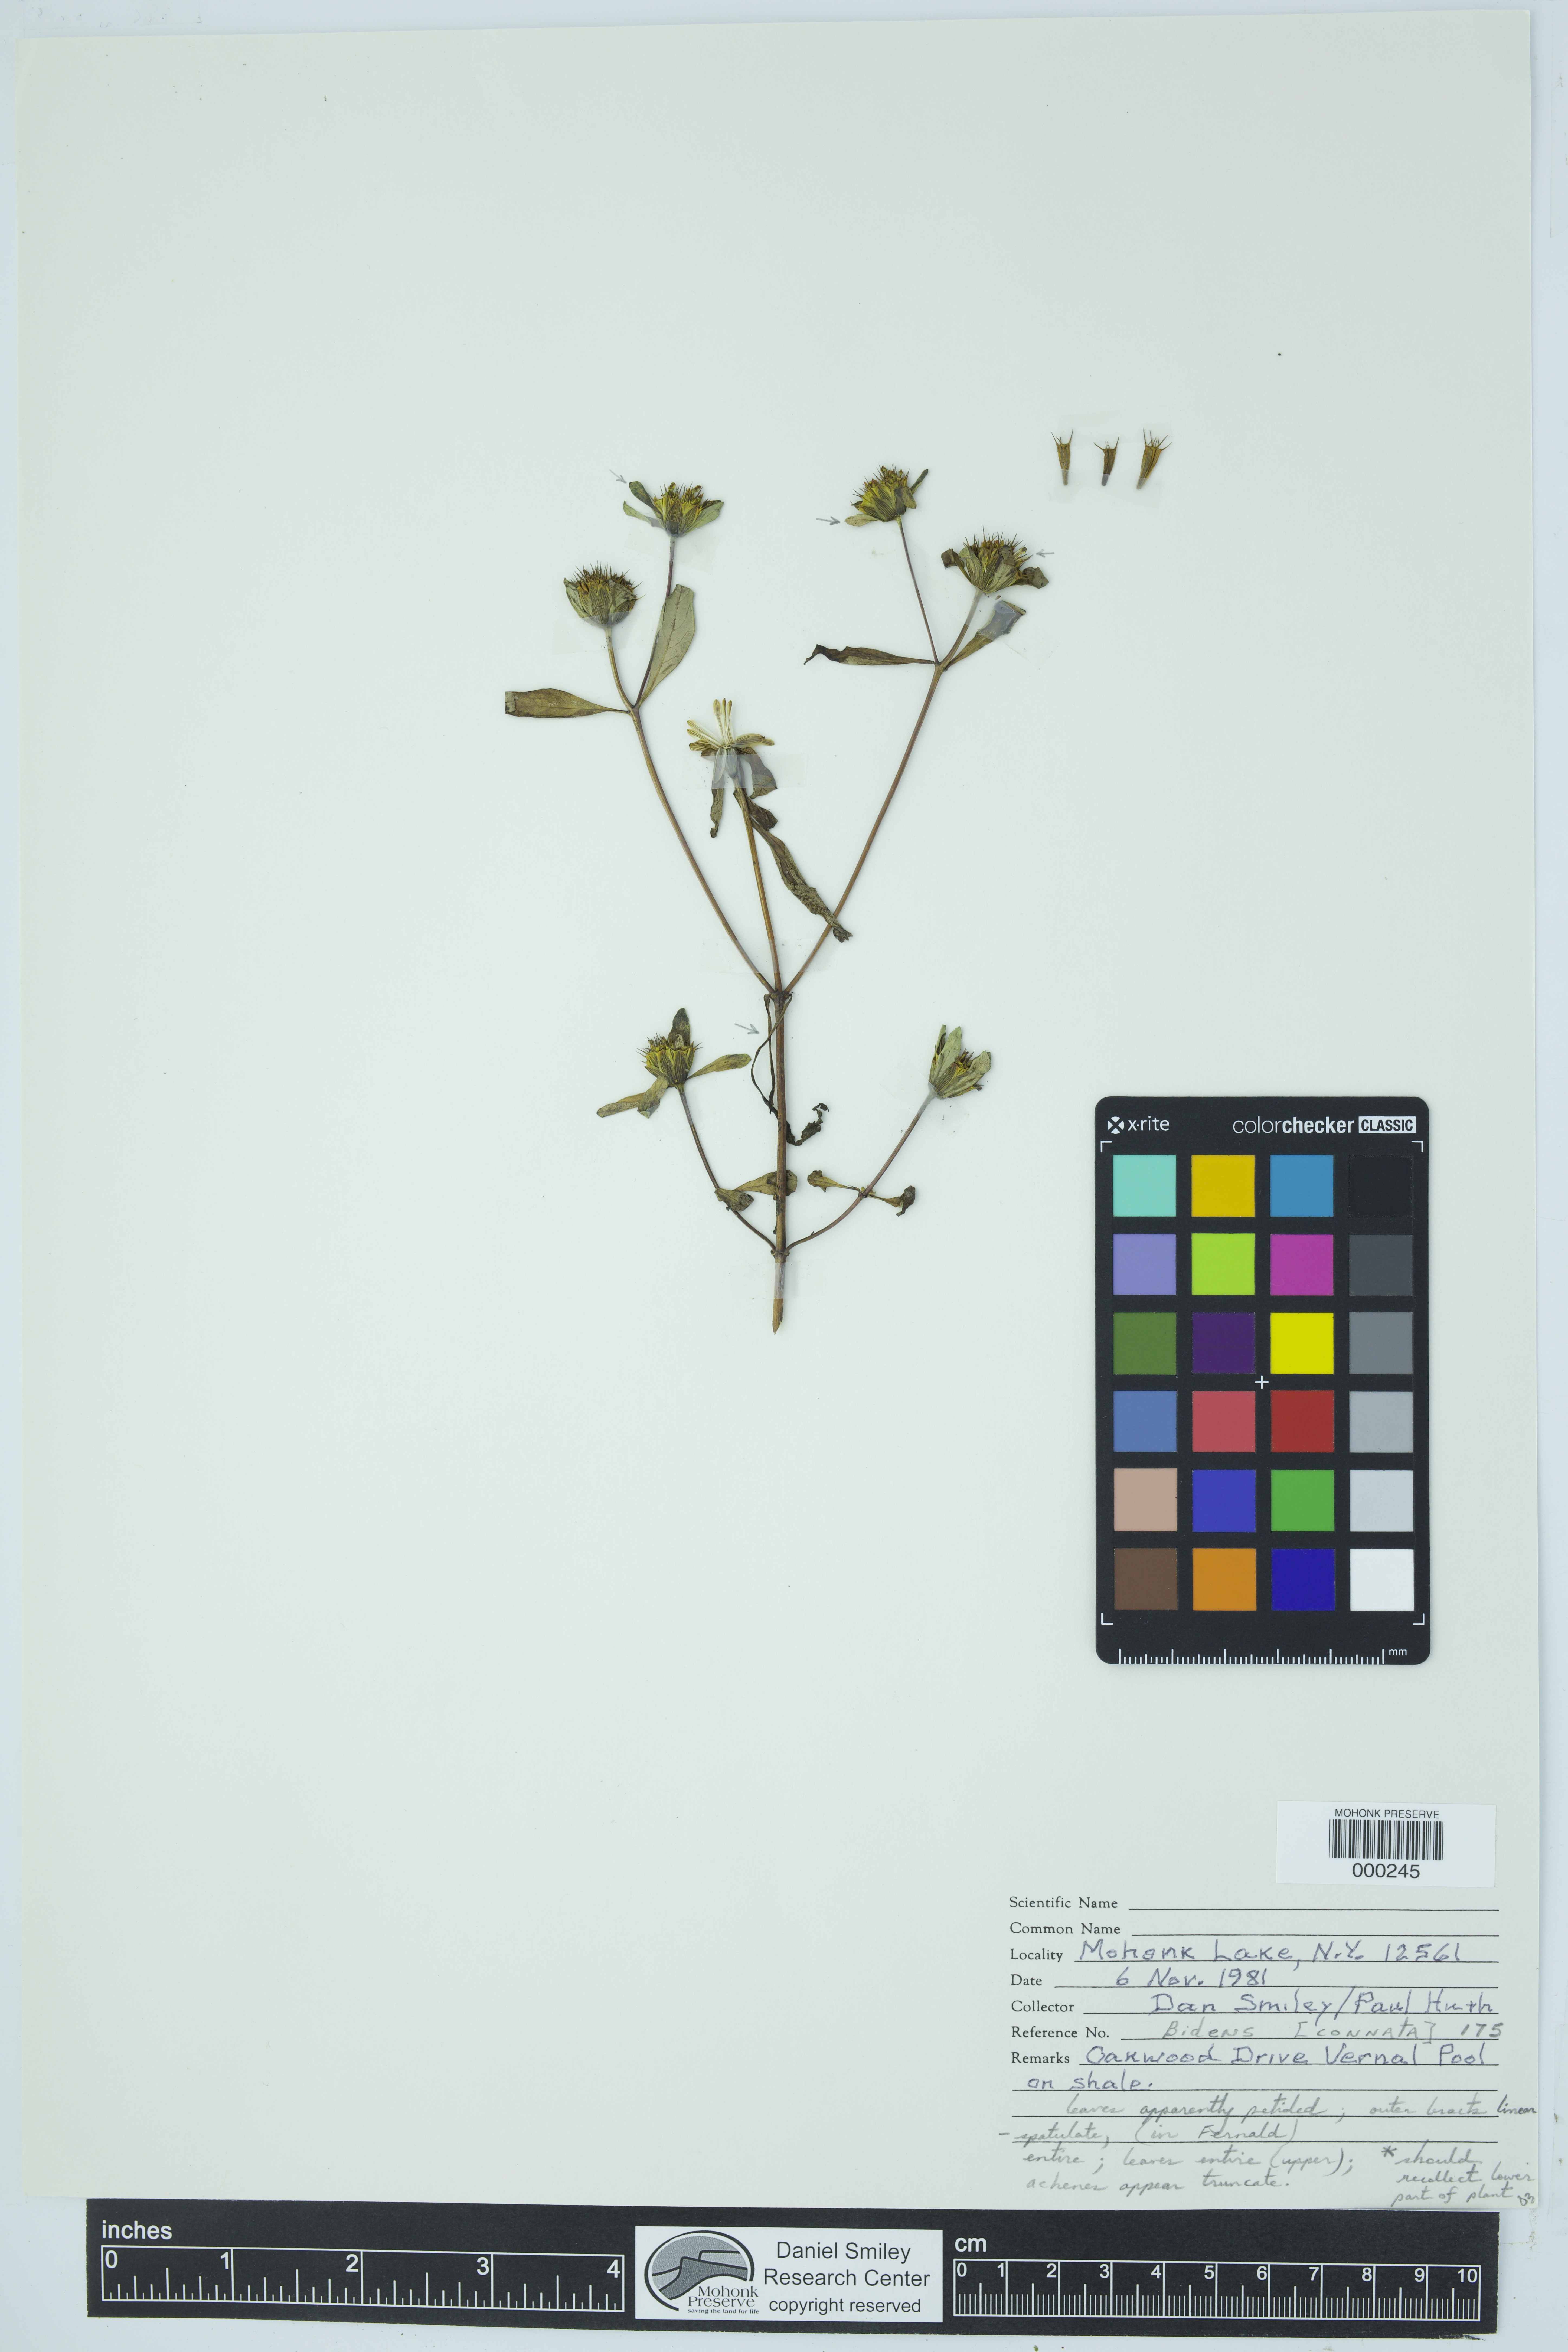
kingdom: Plantae
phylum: Tracheophyta
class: Magnoliopsida
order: Asterales
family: Asteraceae
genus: Bidens
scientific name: Bidens connata
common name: London bur-marigold
